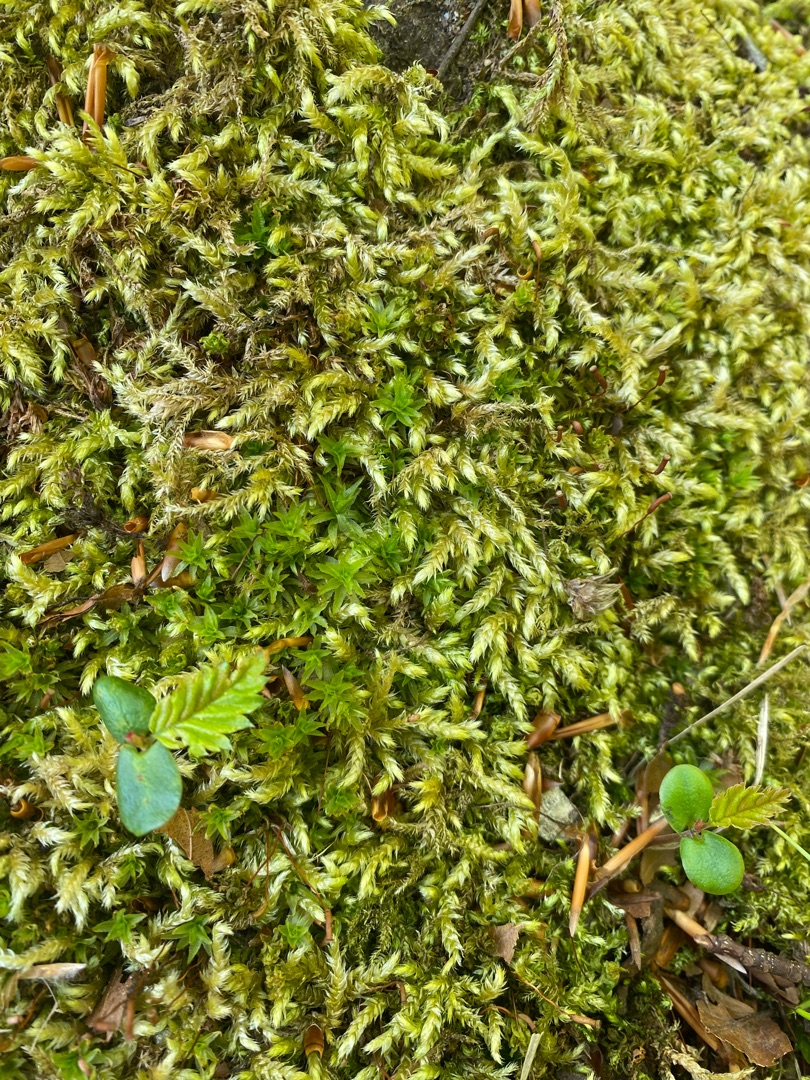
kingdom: Plantae
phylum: Bryophyta
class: Bryopsida
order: Hypnales
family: Brachytheciaceae
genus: Brachythecium
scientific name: Brachythecium rutabulum
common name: Almindelig kortkapsel
